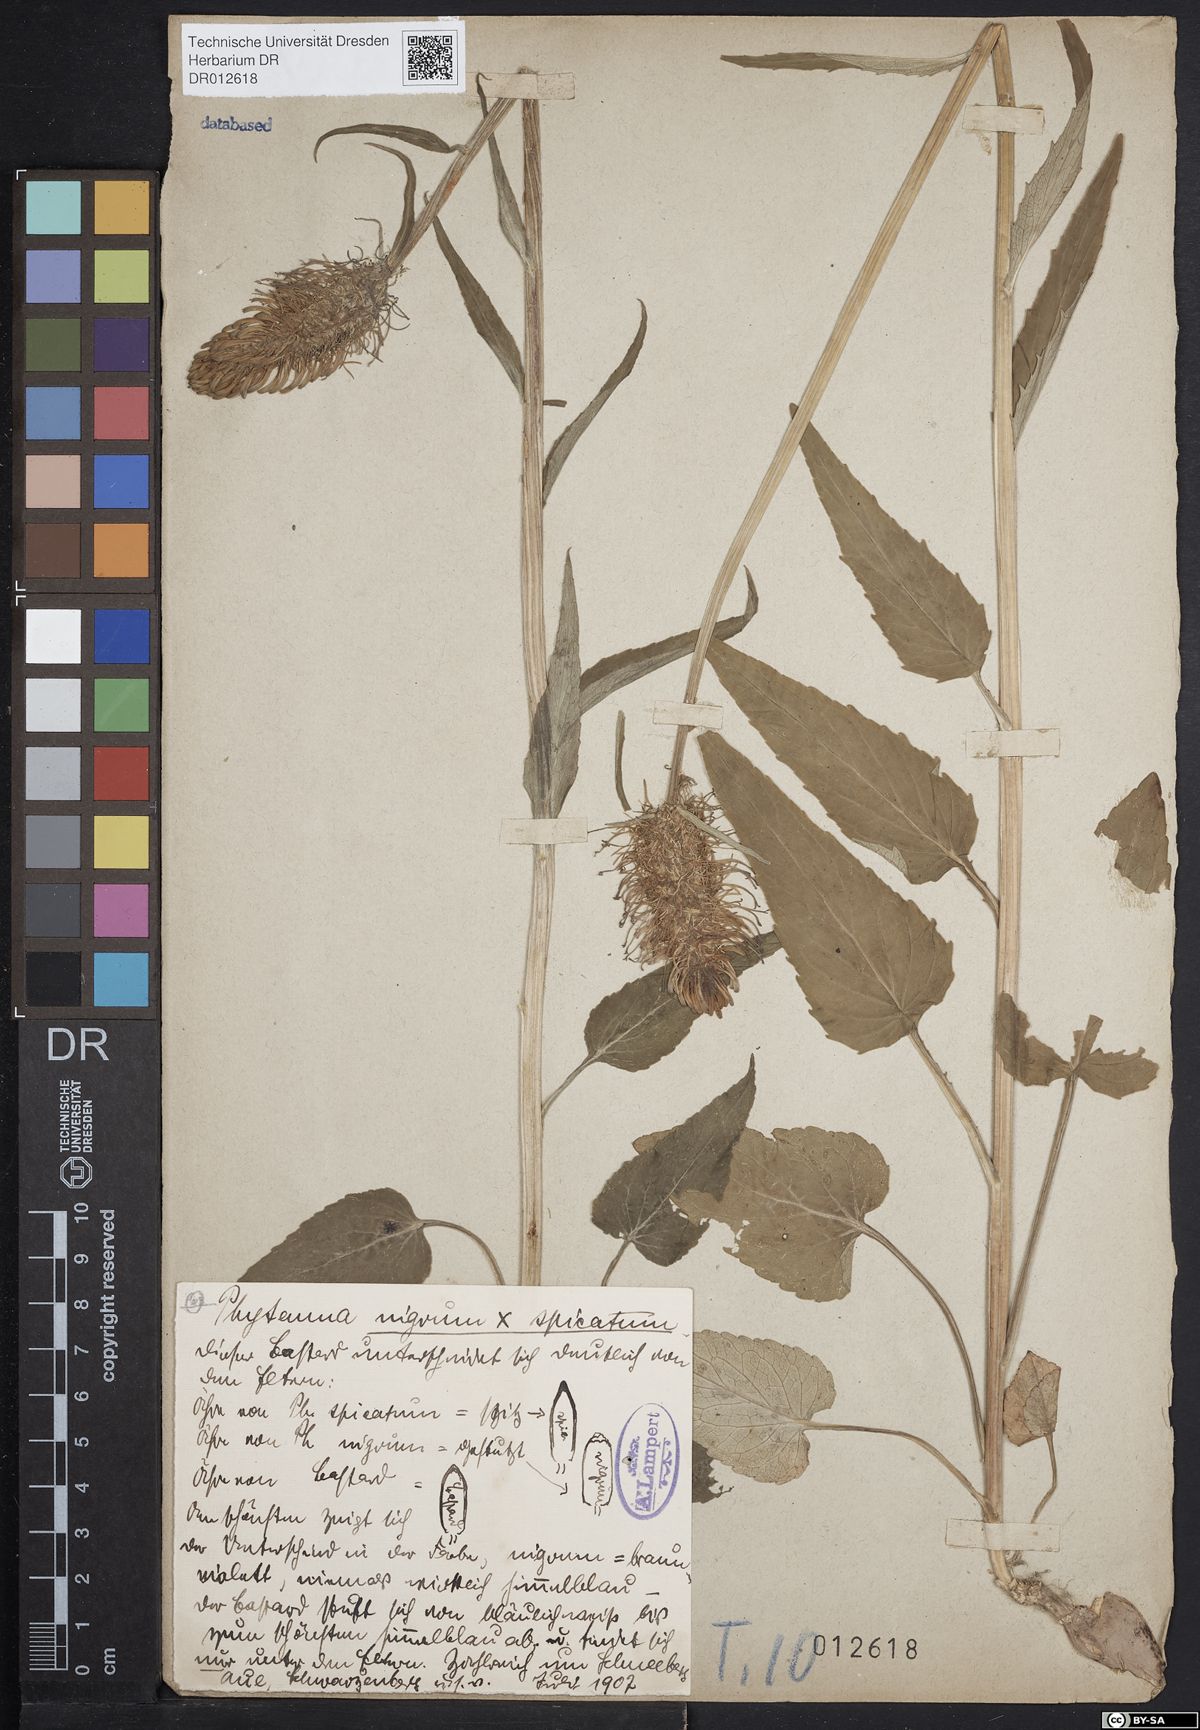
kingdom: Plantae
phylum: Tracheophyta
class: Magnoliopsida
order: Asterales
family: Campanulaceae
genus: Phyteuma
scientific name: Phyteuma adulterinum
